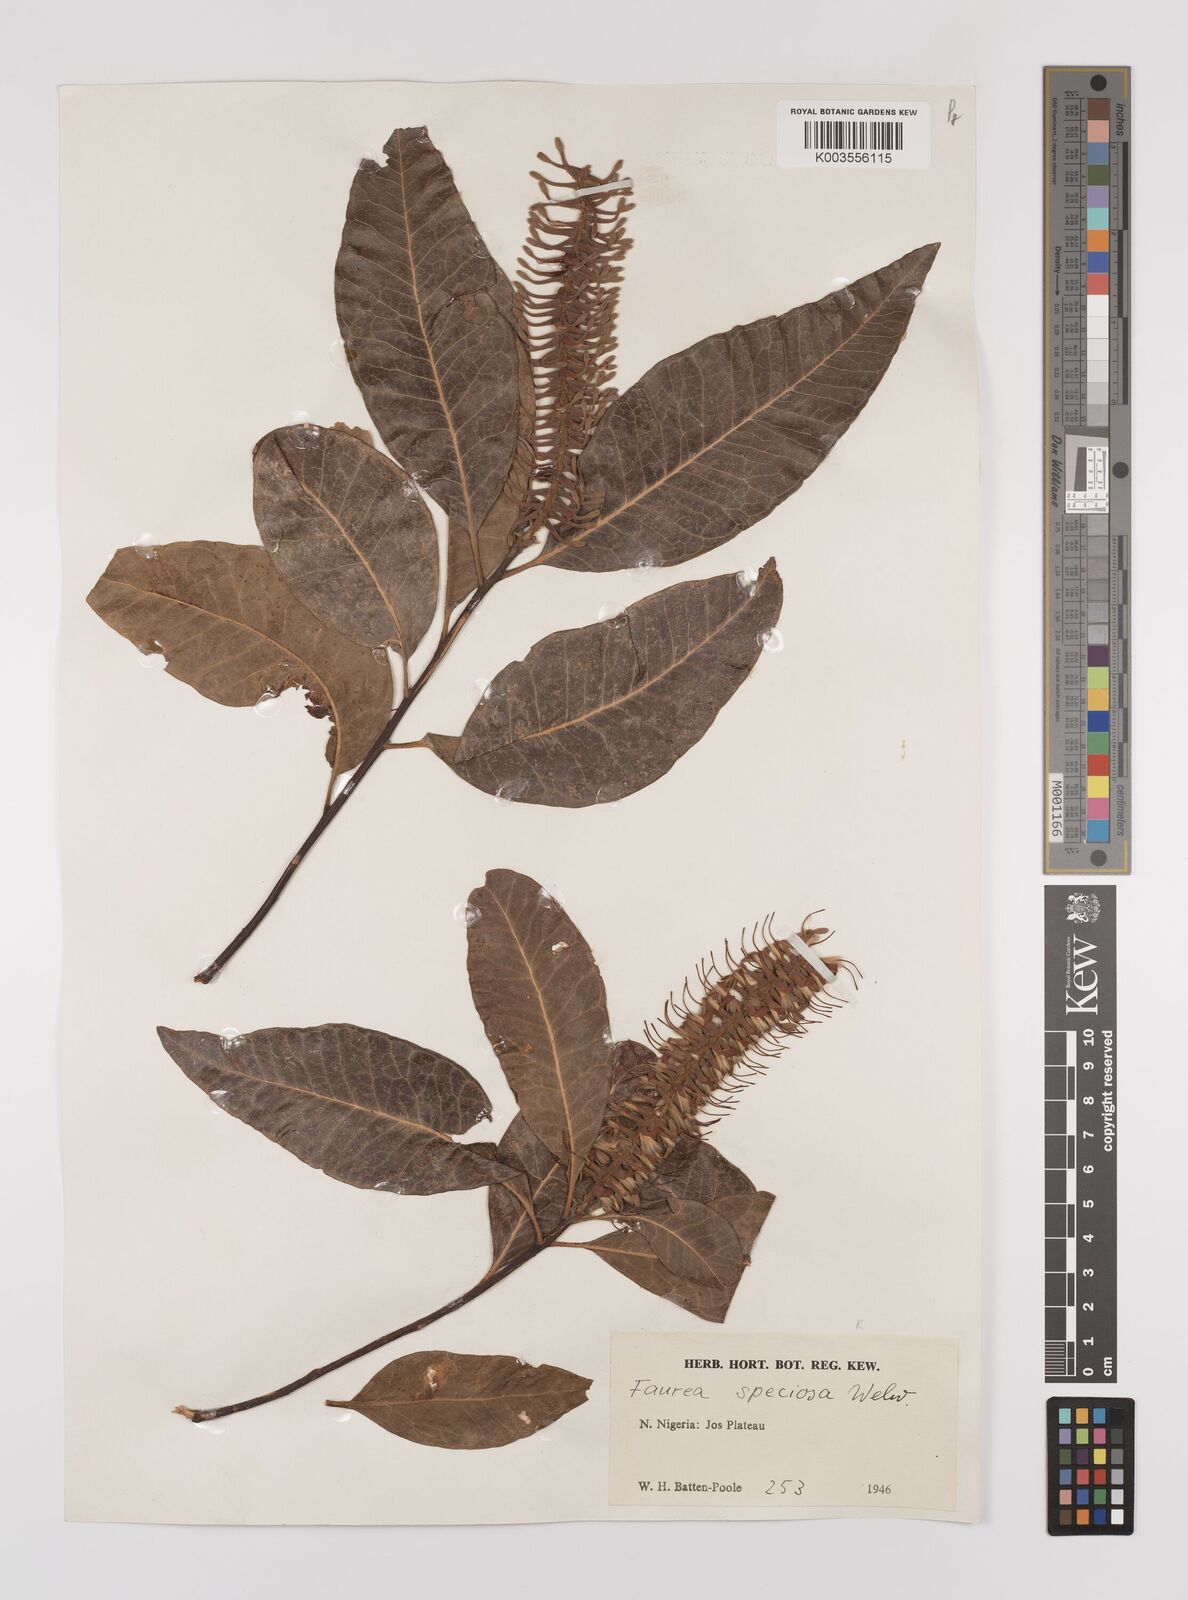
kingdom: Plantae
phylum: Tracheophyta
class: Magnoliopsida
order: Proteales
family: Proteaceae
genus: Faurea
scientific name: Faurea rochetiana
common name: Broad-leaved beech
